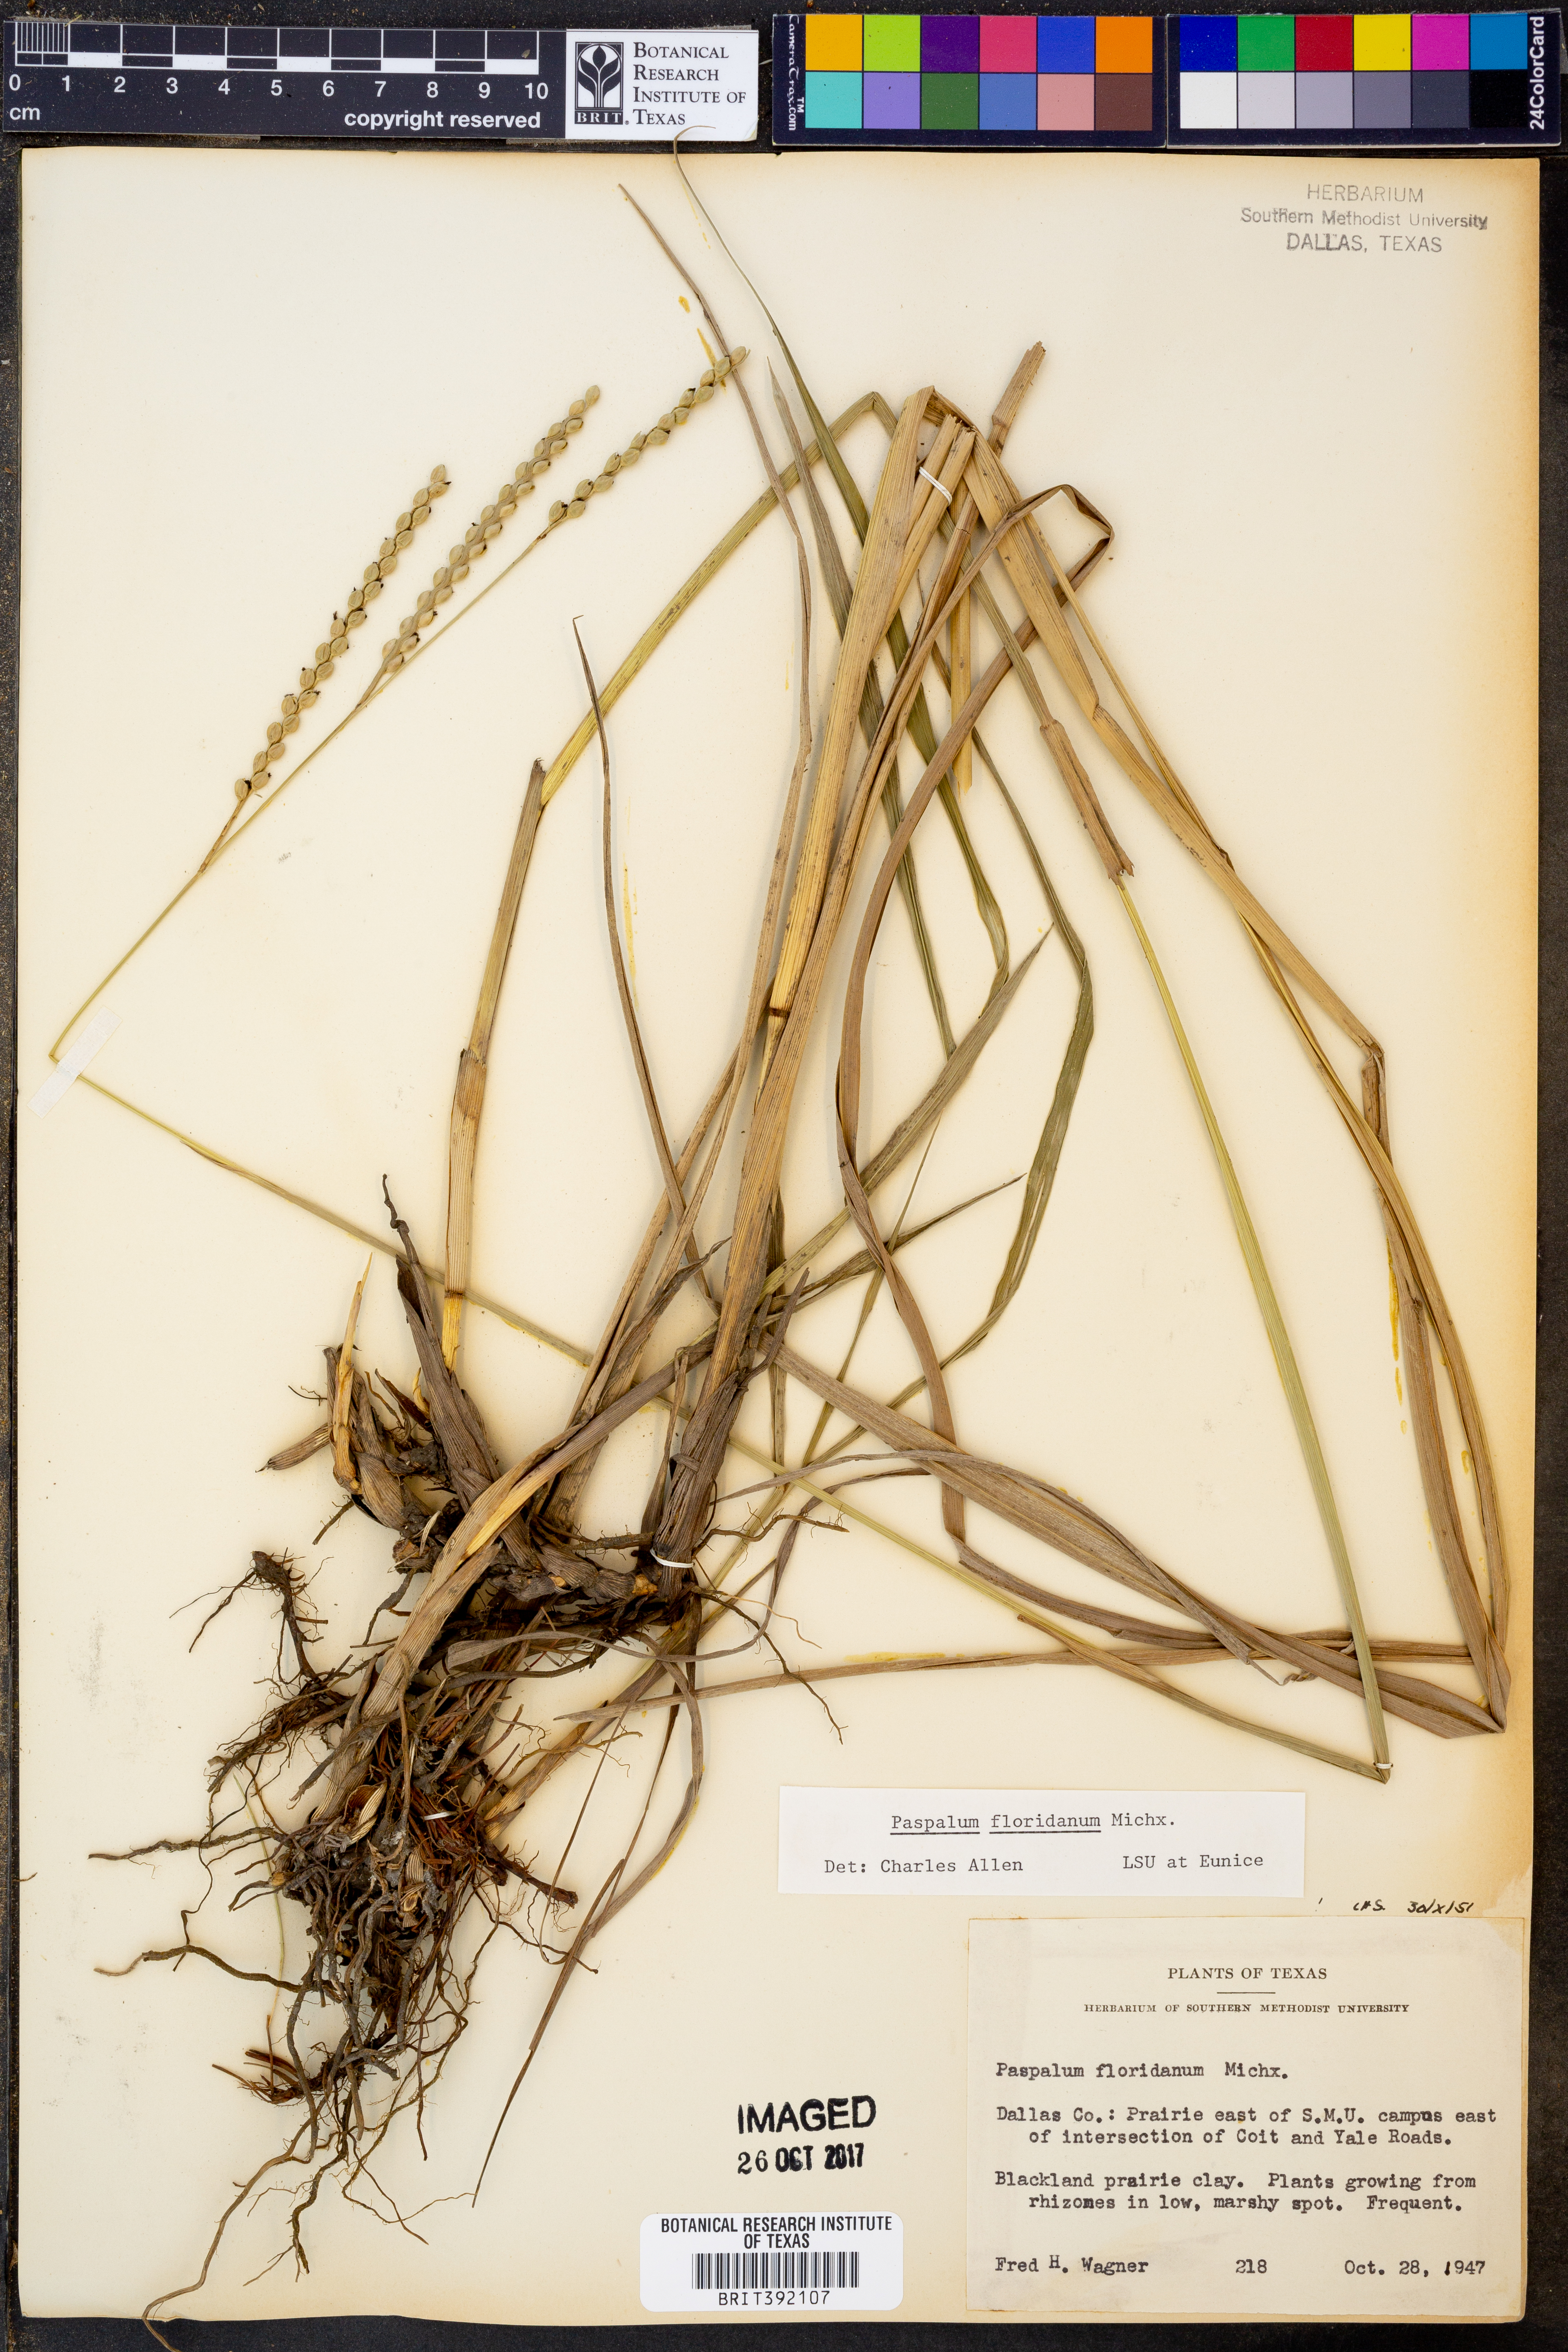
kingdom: Plantae
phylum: Tracheophyta
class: Liliopsida
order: Poales
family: Poaceae
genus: Paspalum
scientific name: Paspalum floridanum
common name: Florida paspalum
